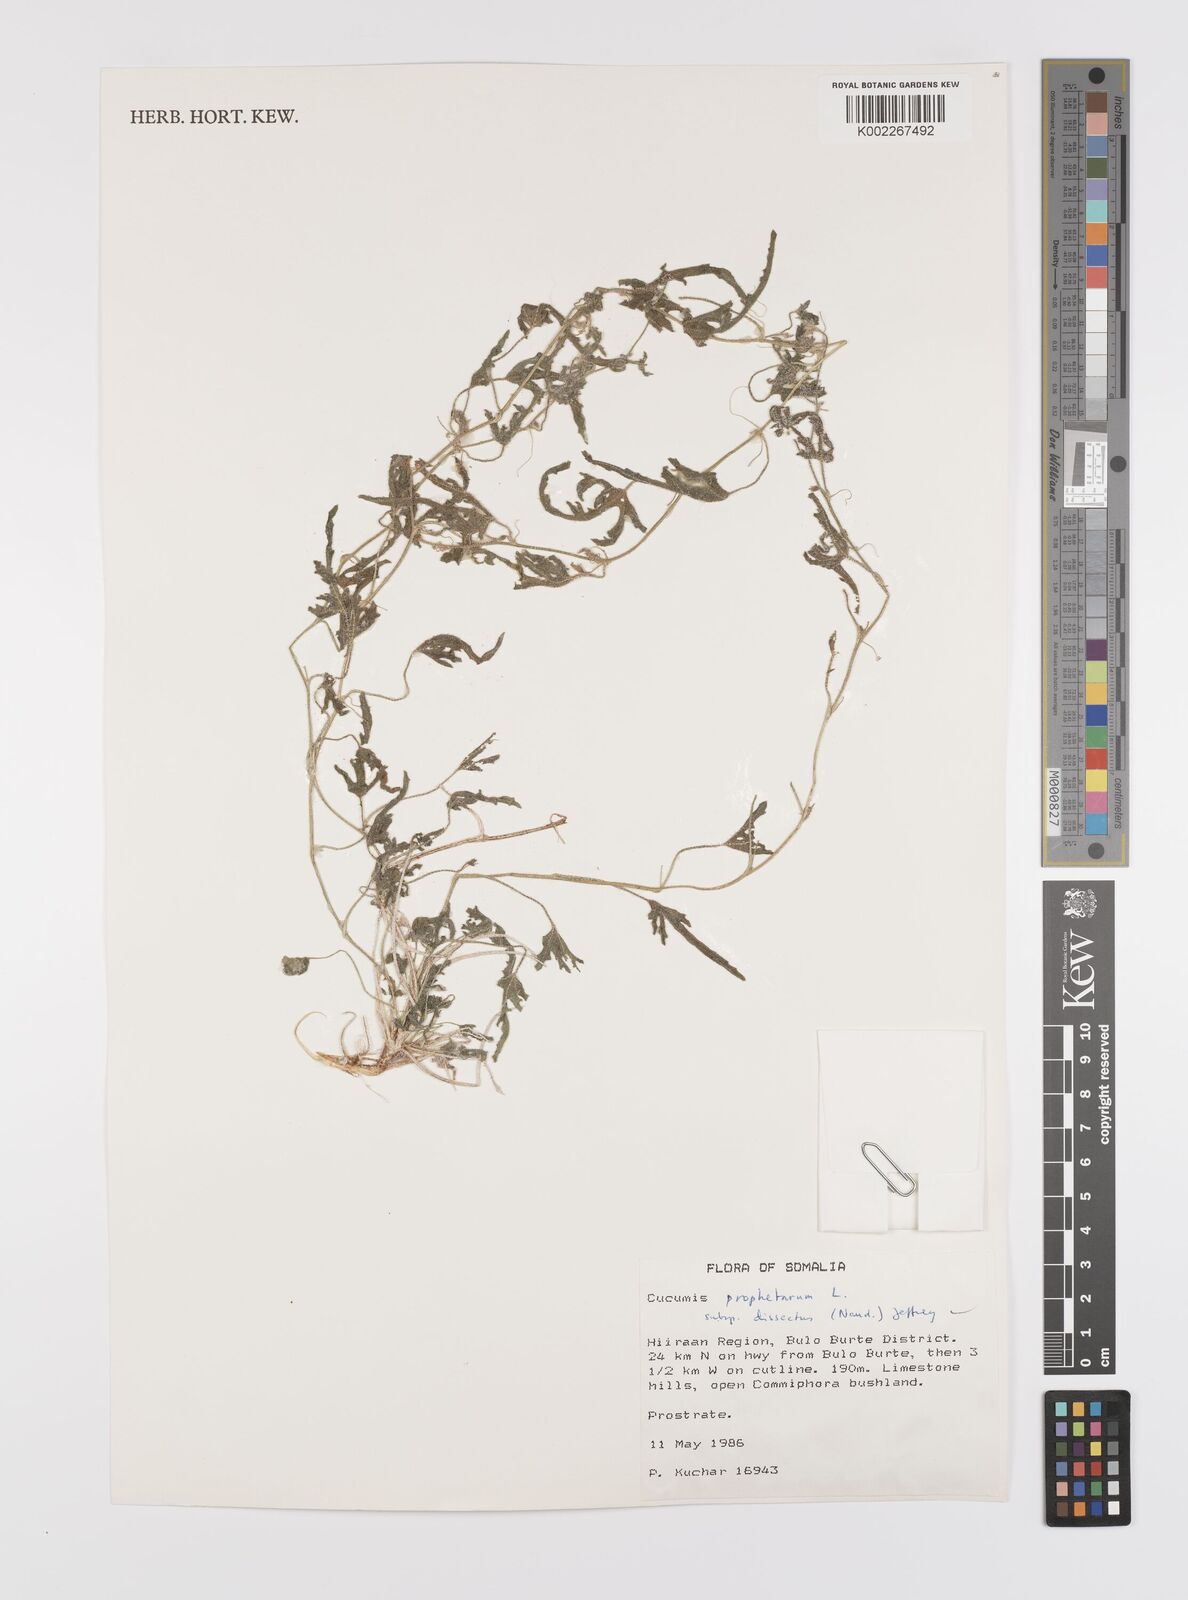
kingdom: Plantae
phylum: Tracheophyta
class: Magnoliopsida
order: Cucurbitales
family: Cucurbitaceae
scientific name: Cucurbitaceae
